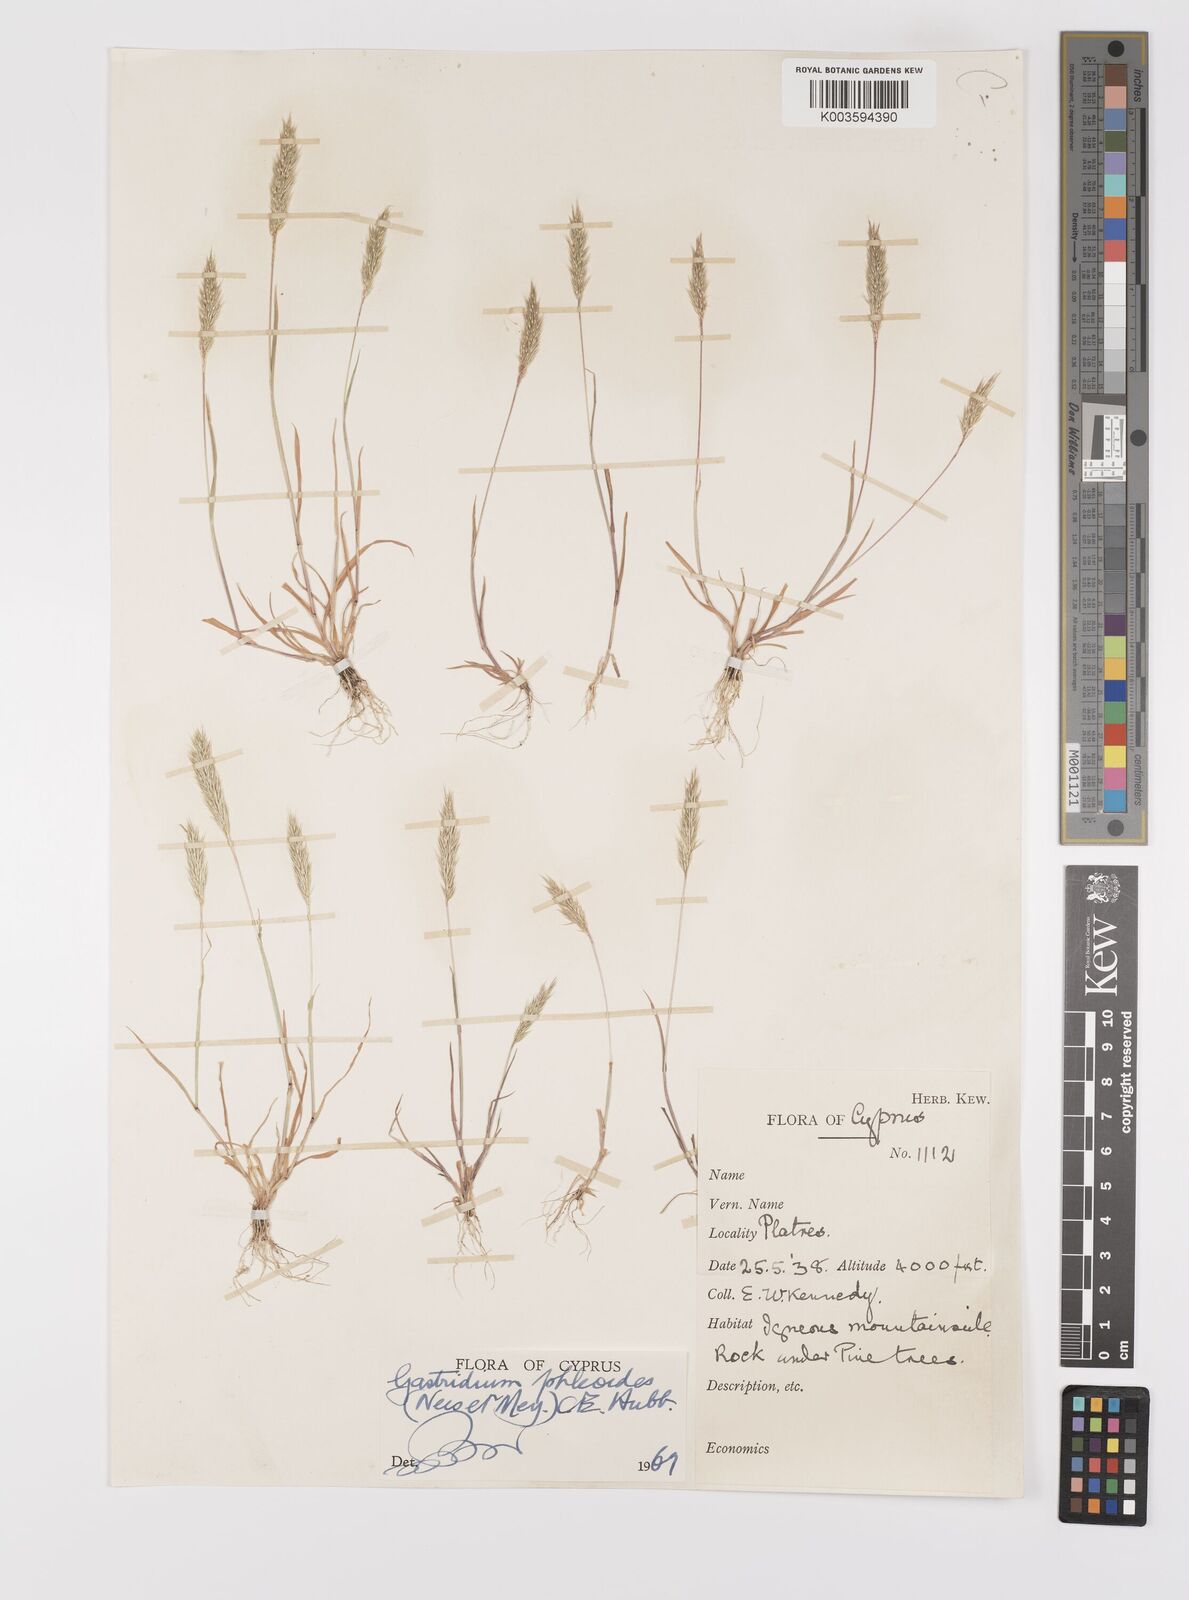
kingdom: Plantae
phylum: Tracheophyta
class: Liliopsida
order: Poales
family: Poaceae
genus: Gastridium
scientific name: Gastridium phleoides
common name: Nit grass
